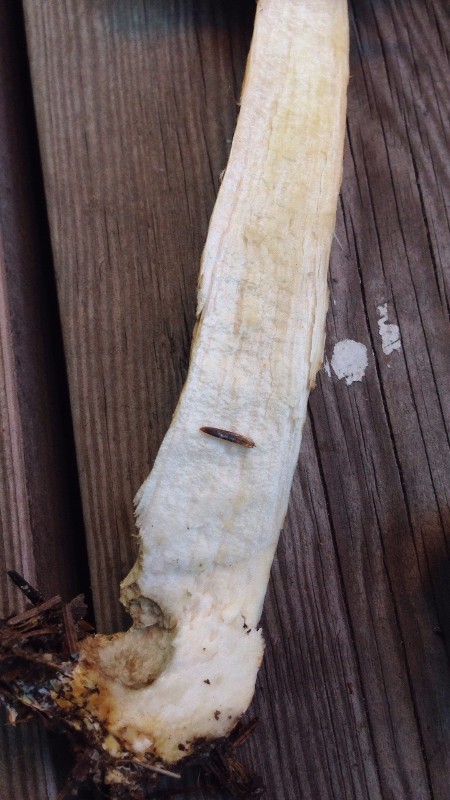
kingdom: Fungi
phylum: Basidiomycota
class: Agaricomycetes
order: Boletales
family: Boletaceae
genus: Leccinum
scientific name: Leccinum scabrum
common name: brun skælrørhat
